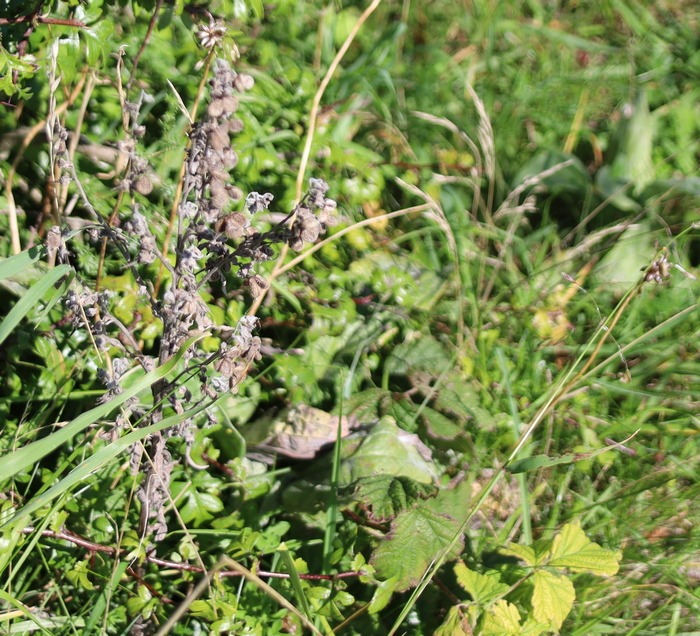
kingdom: Plantae
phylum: Tracheophyta
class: Magnoliopsida
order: Boraginales
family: Boraginaceae
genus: Cynoglossum
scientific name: Cynoglossum officinale
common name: Hundetunge
